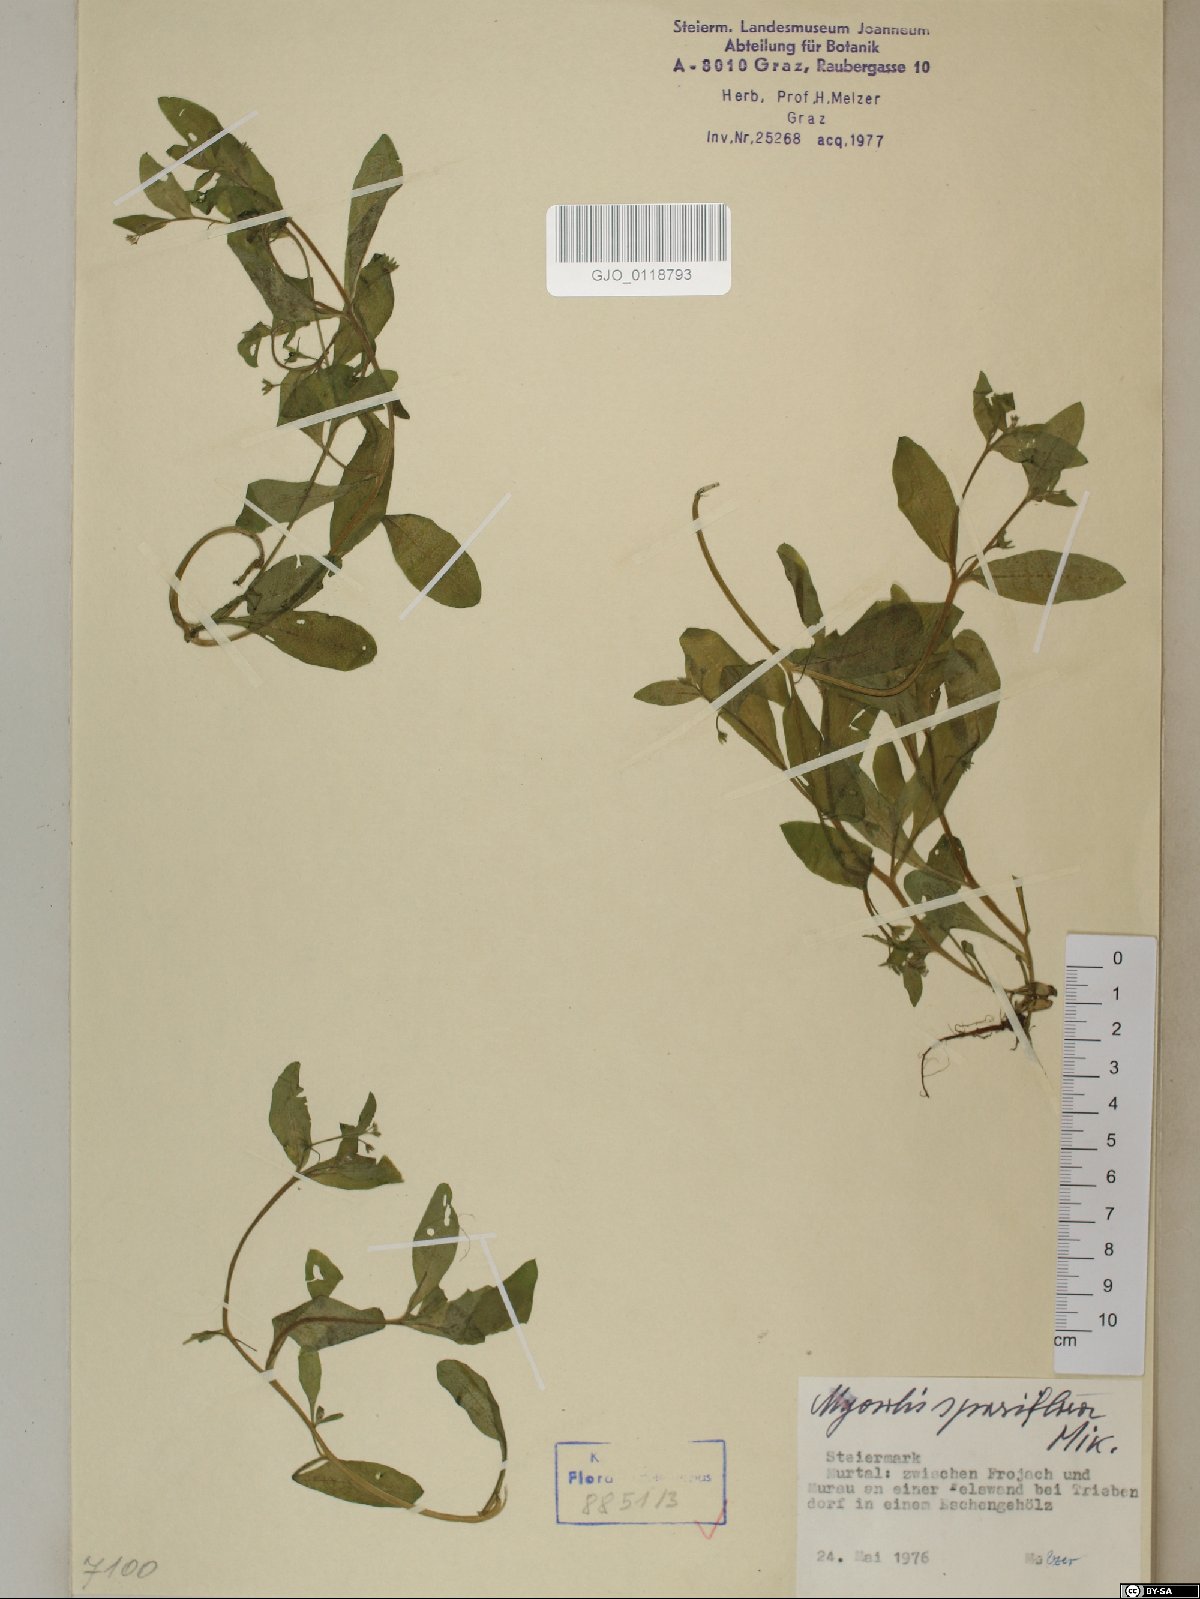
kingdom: Plantae
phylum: Tracheophyta
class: Magnoliopsida
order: Boraginales
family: Boraginaceae
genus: Myosotis
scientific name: Myosotis sparsiflora
